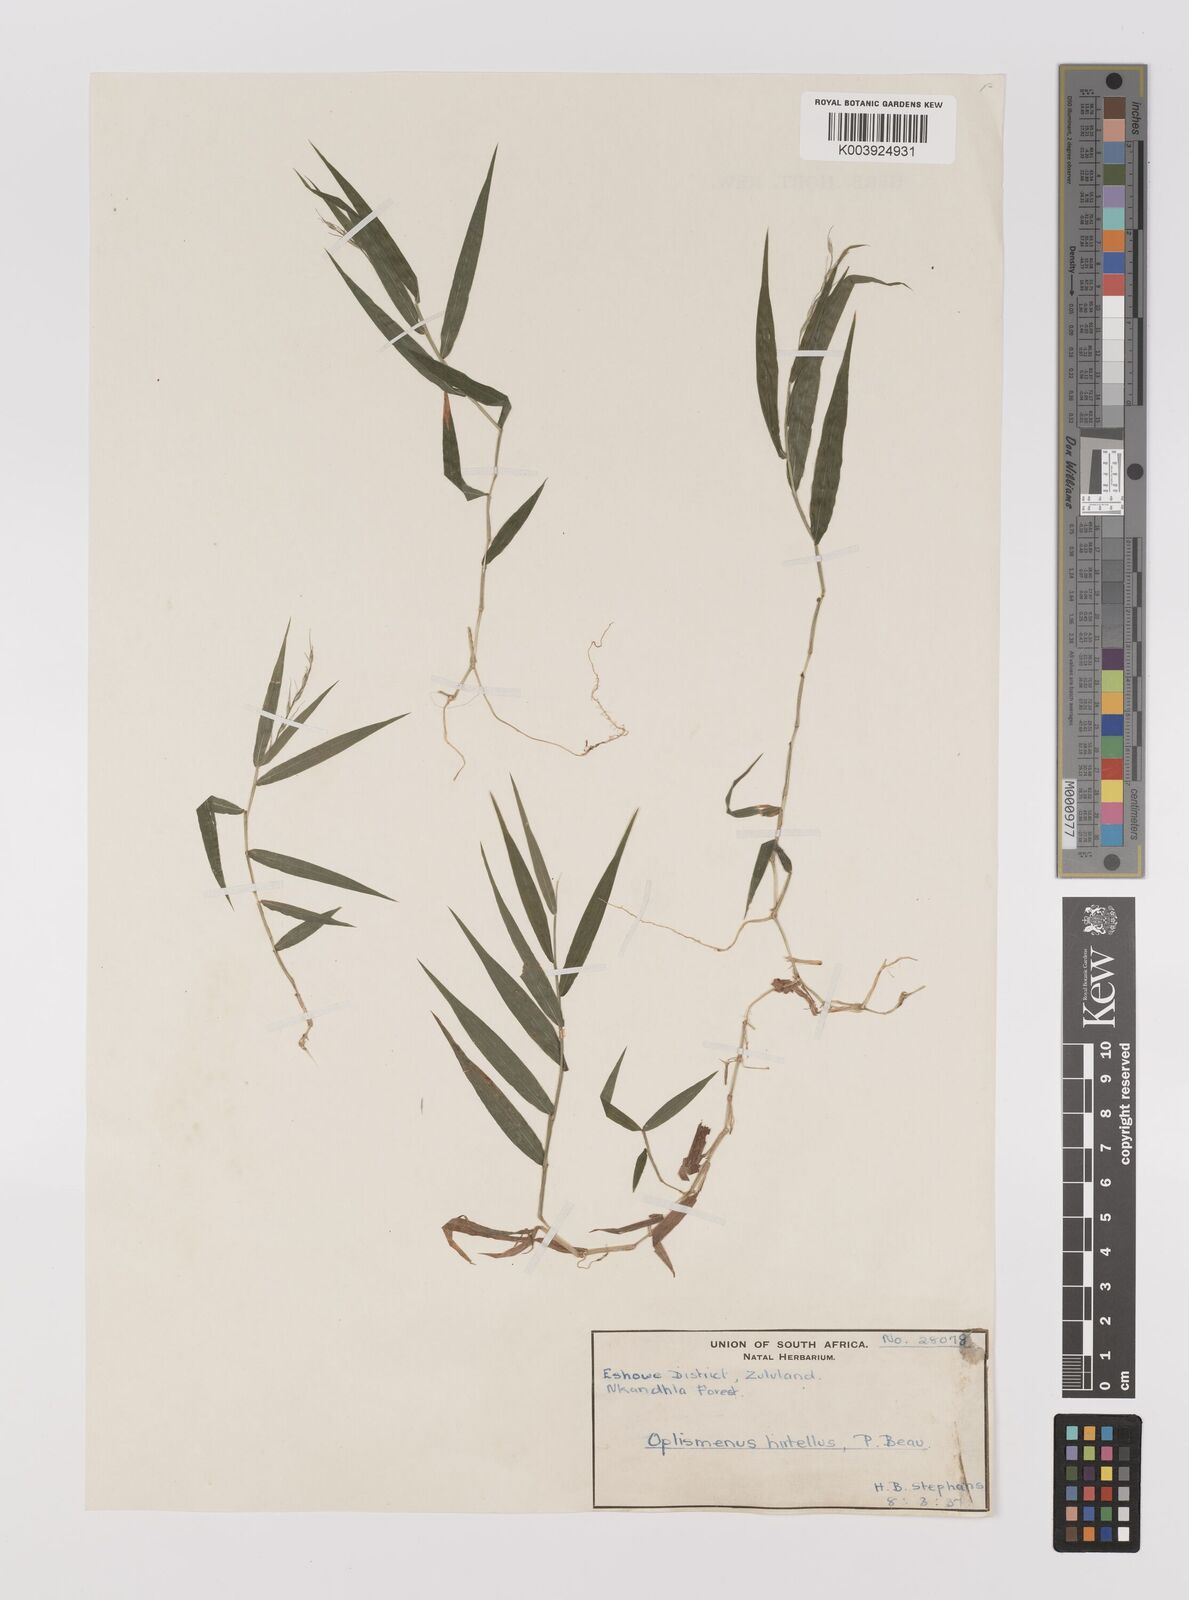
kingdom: Plantae
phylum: Tracheophyta
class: Liliopsida
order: Poales
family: Poaceae
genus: Oplismenus
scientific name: Oplismenus undulatifolius
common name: Wavyleaf basketgrass
